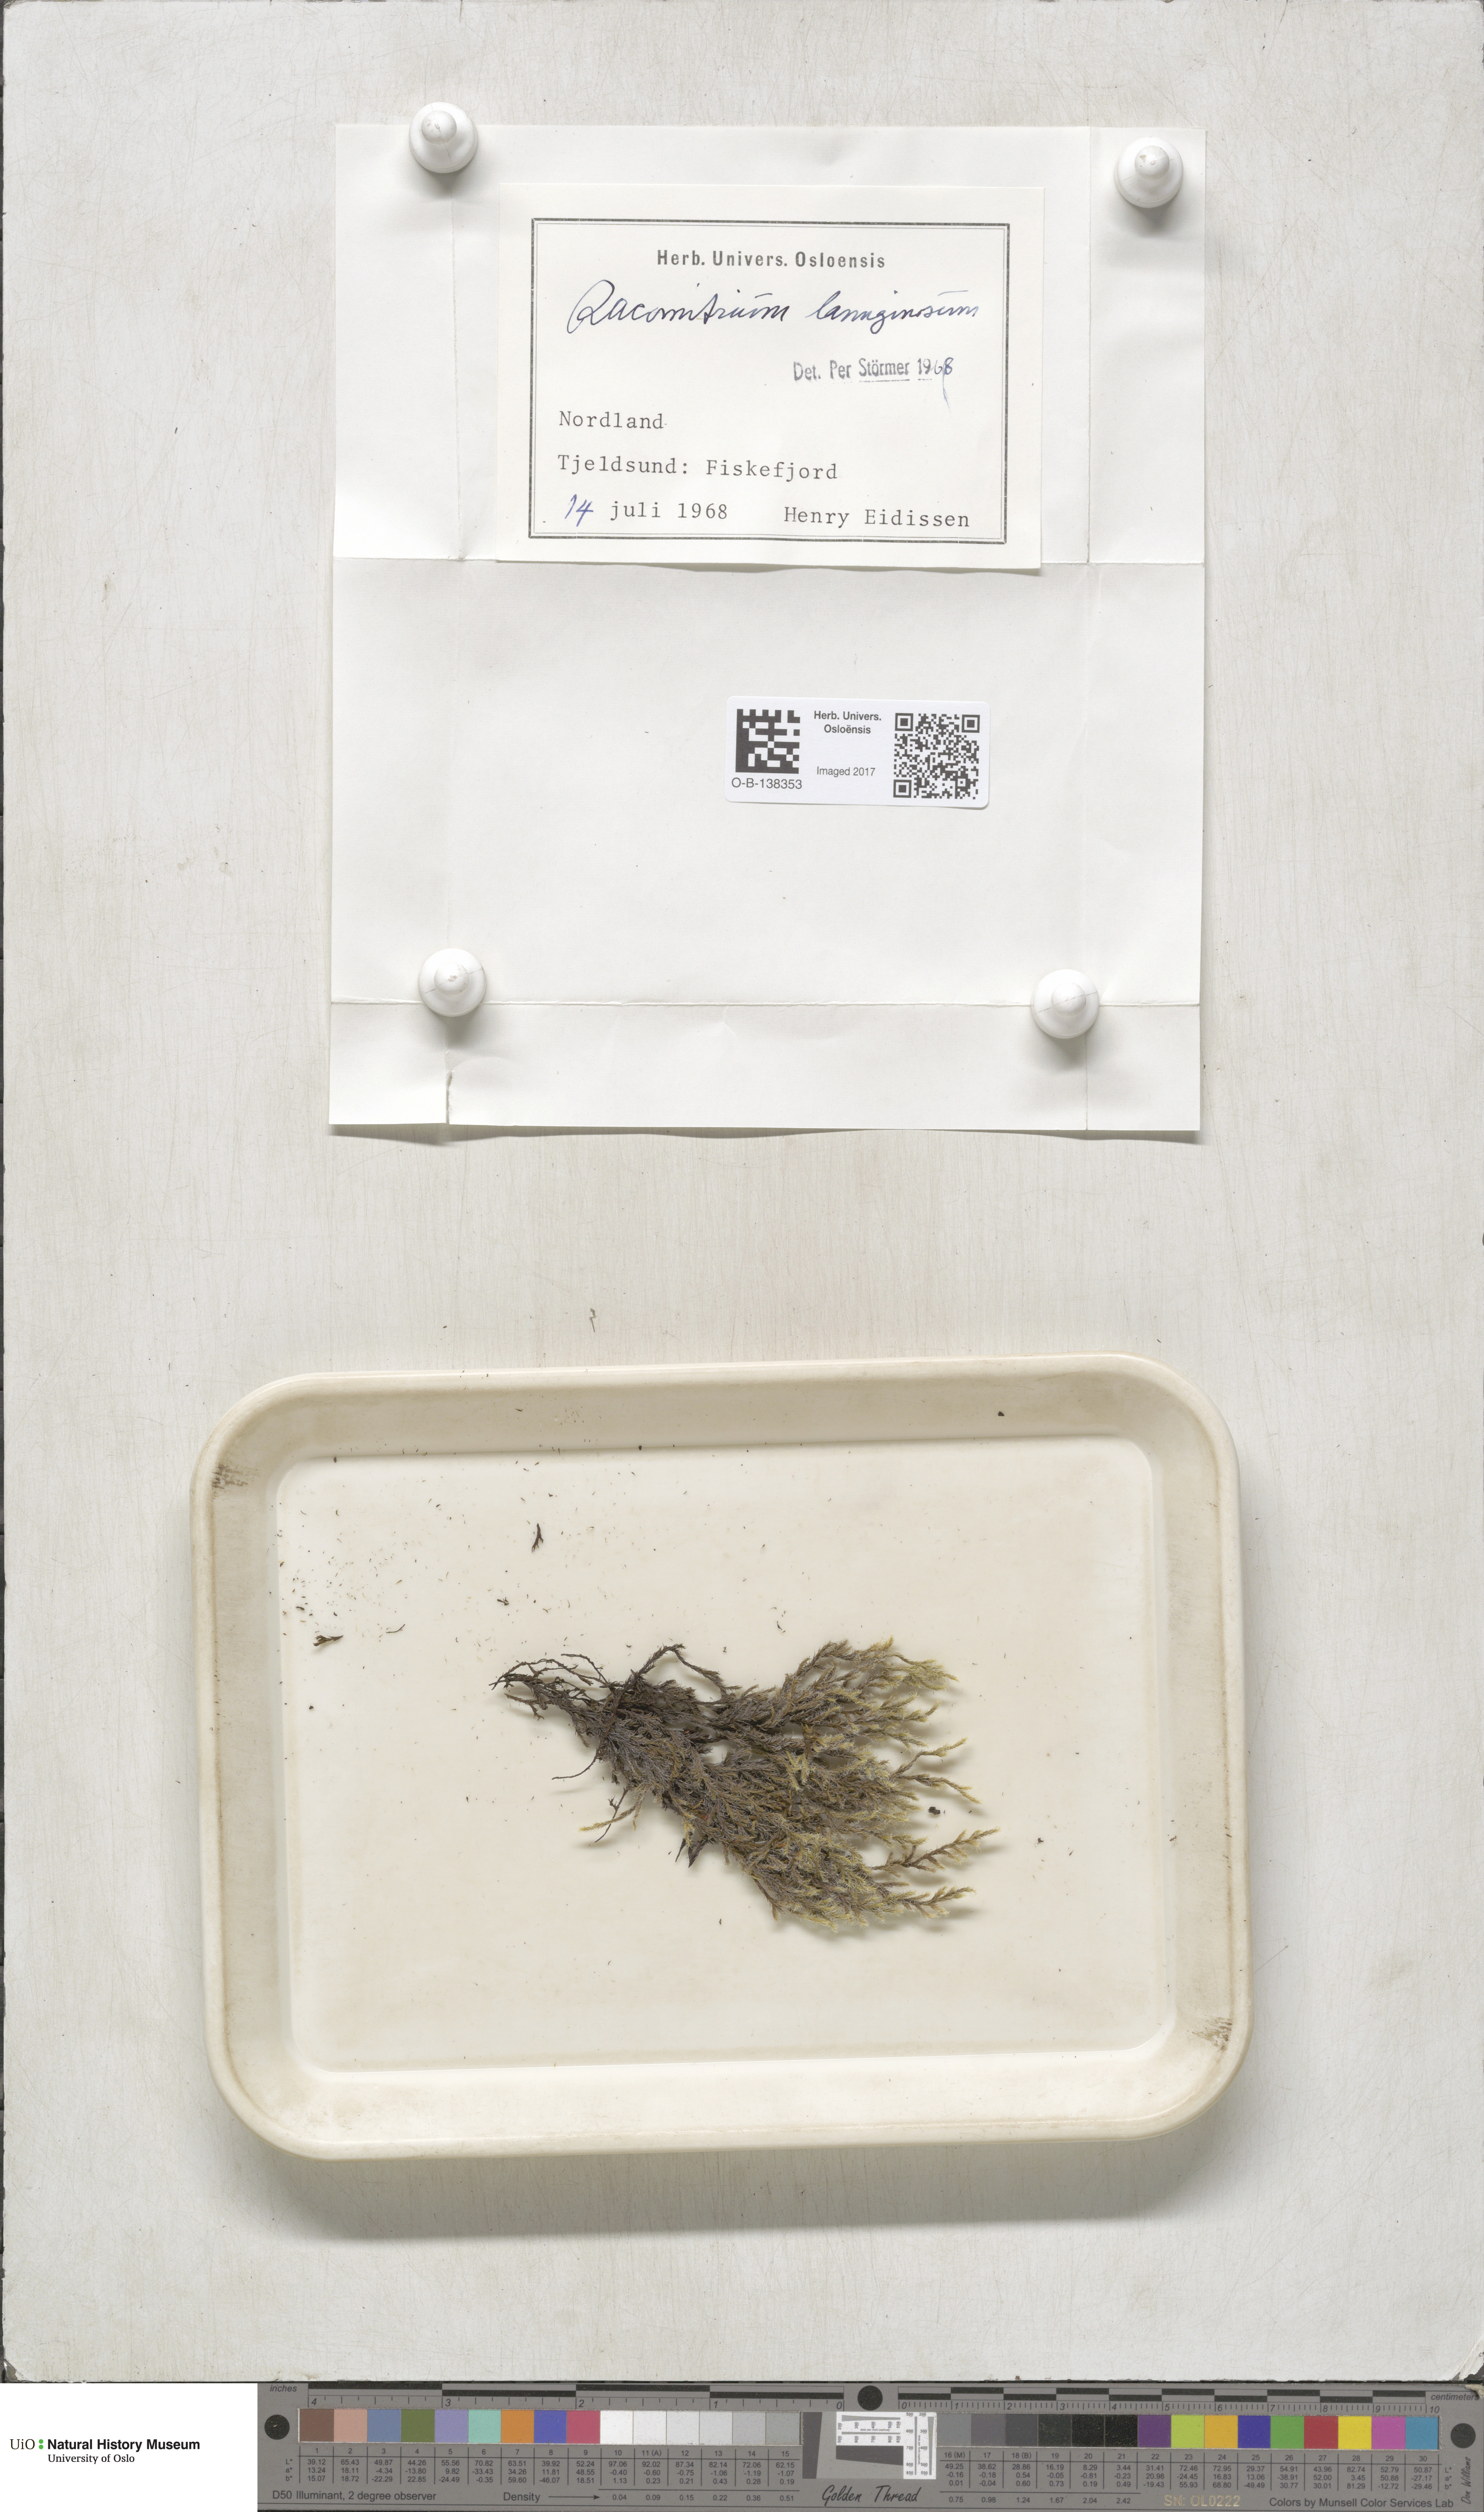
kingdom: Plantae
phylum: Bryophyta
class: Bryopsida
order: Grimmiales
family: Grimmiaceae
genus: Racomitrium
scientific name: Racomitrium lanuginosum
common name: Hoary rock moss
